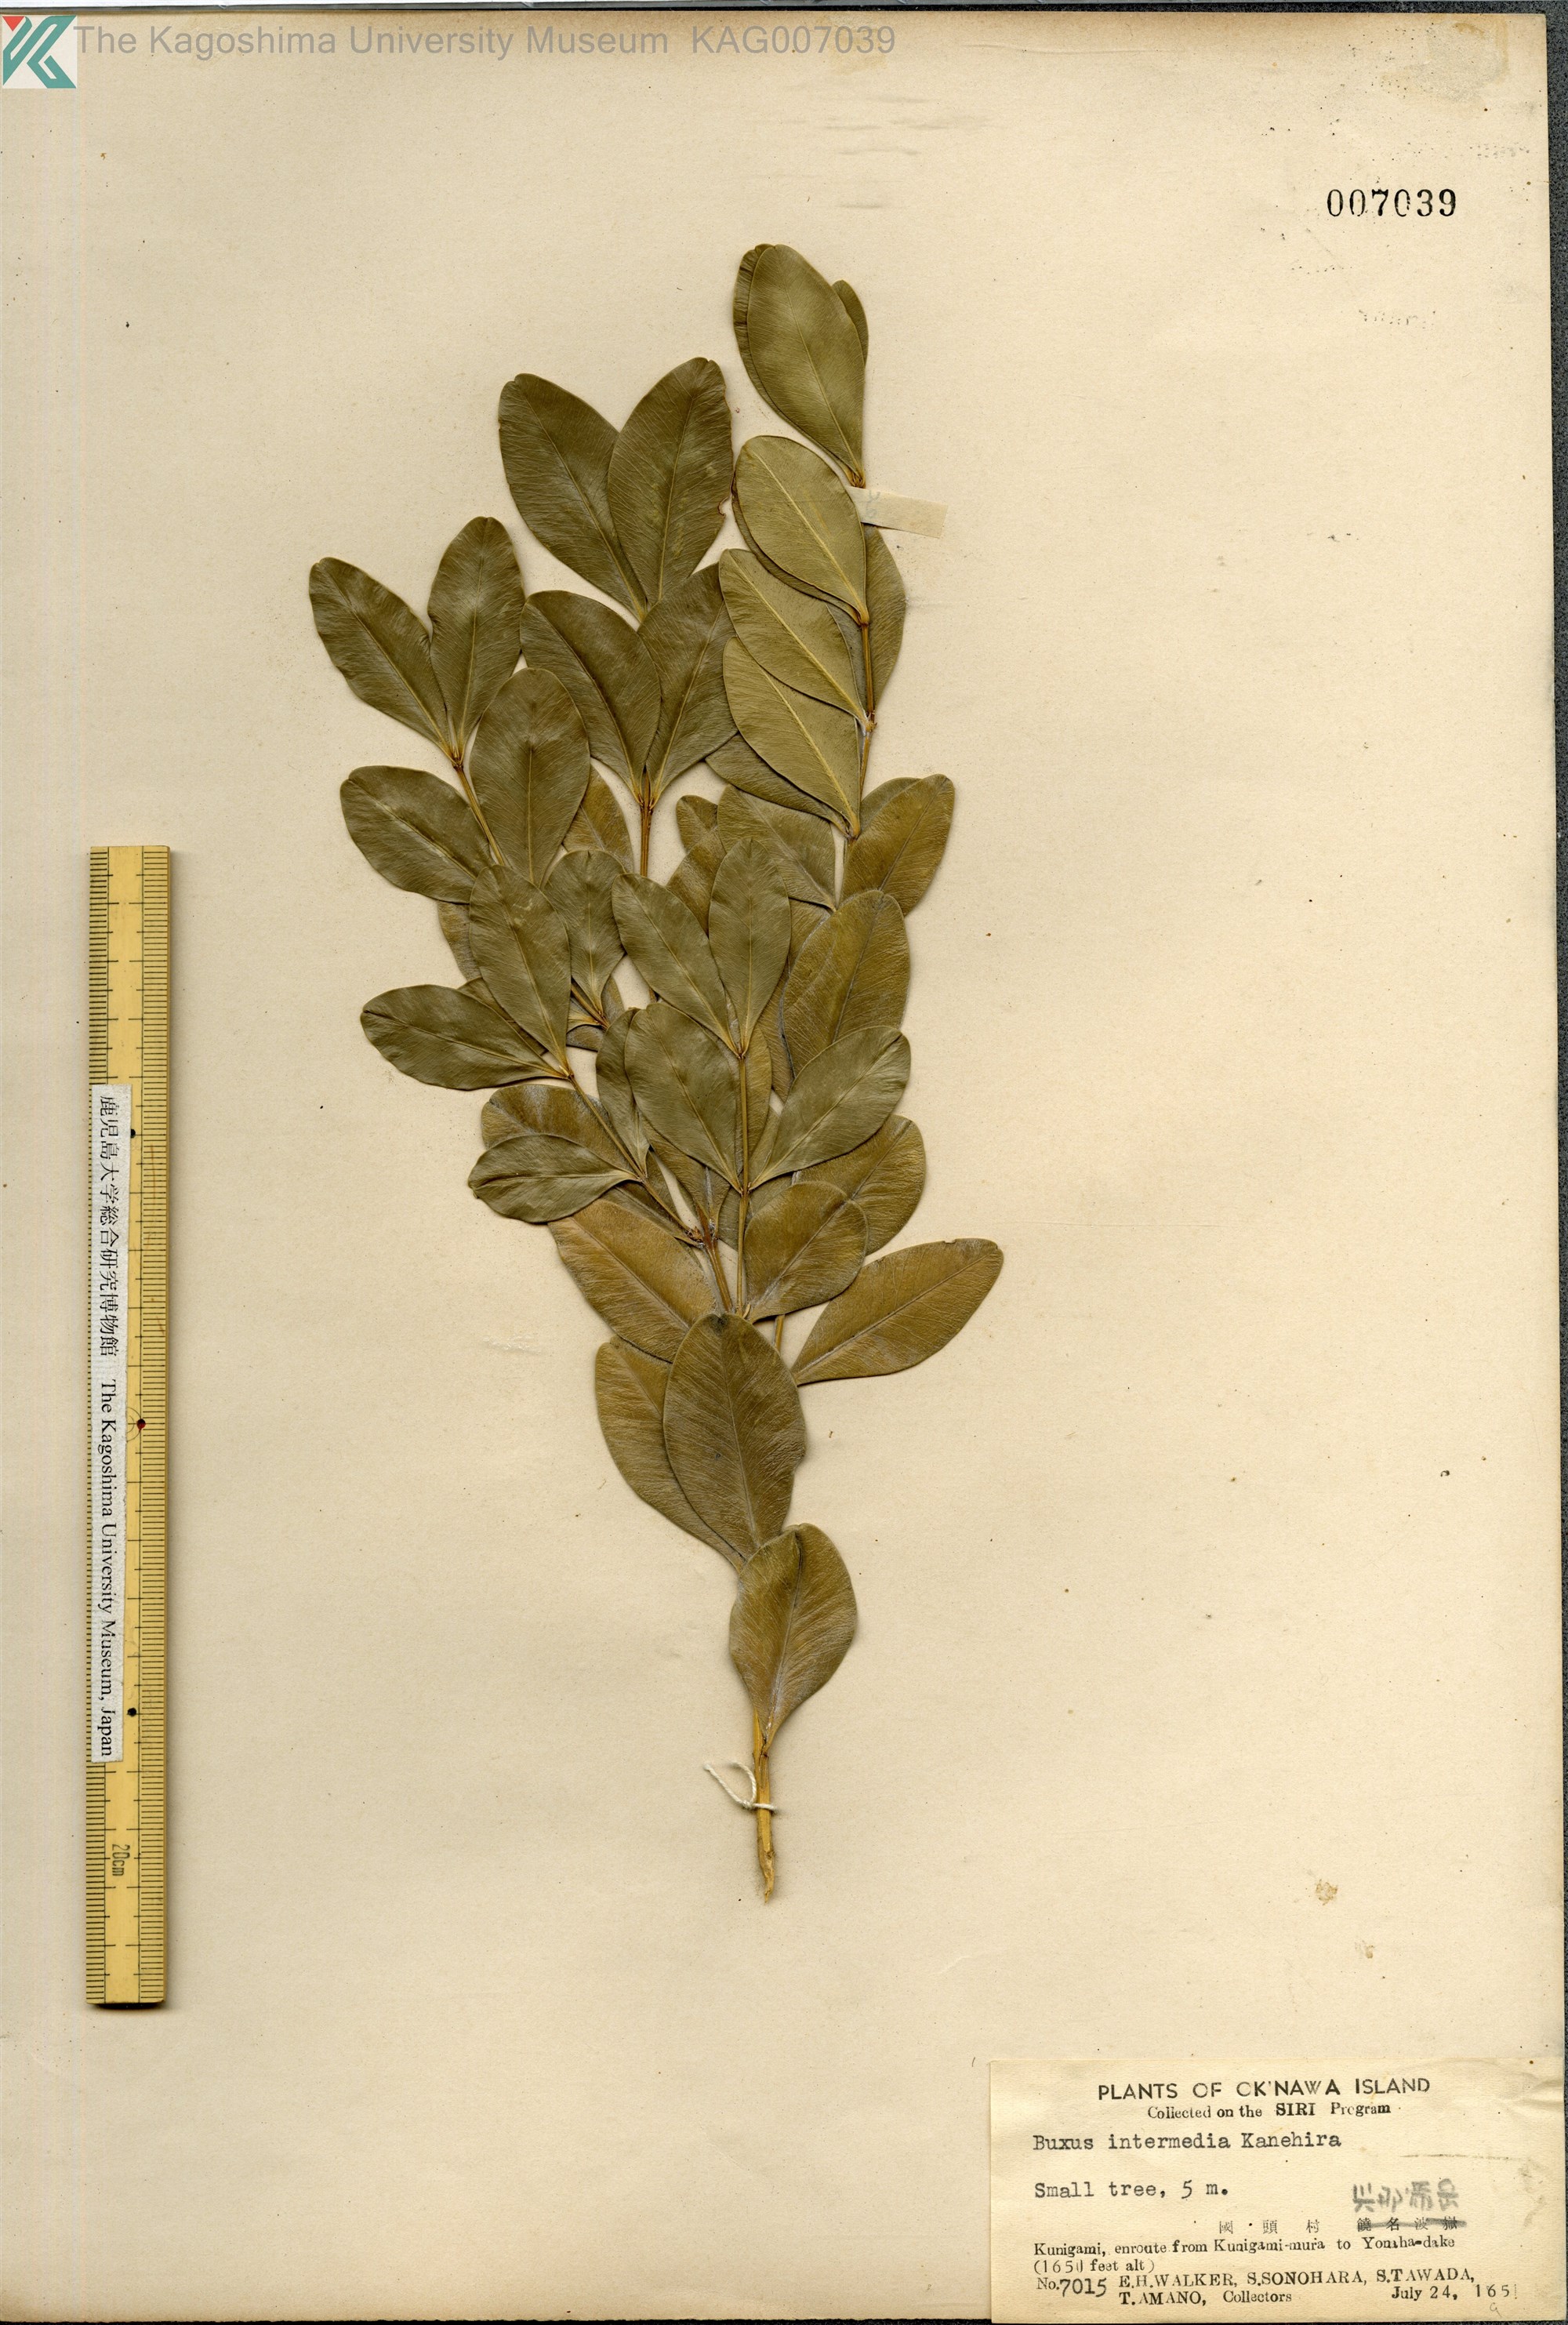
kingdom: Plantae
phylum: Tracheophyta
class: Magnoliopsida
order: Buxales
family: Buxaceae
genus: Buxus
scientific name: Buxus sinica
